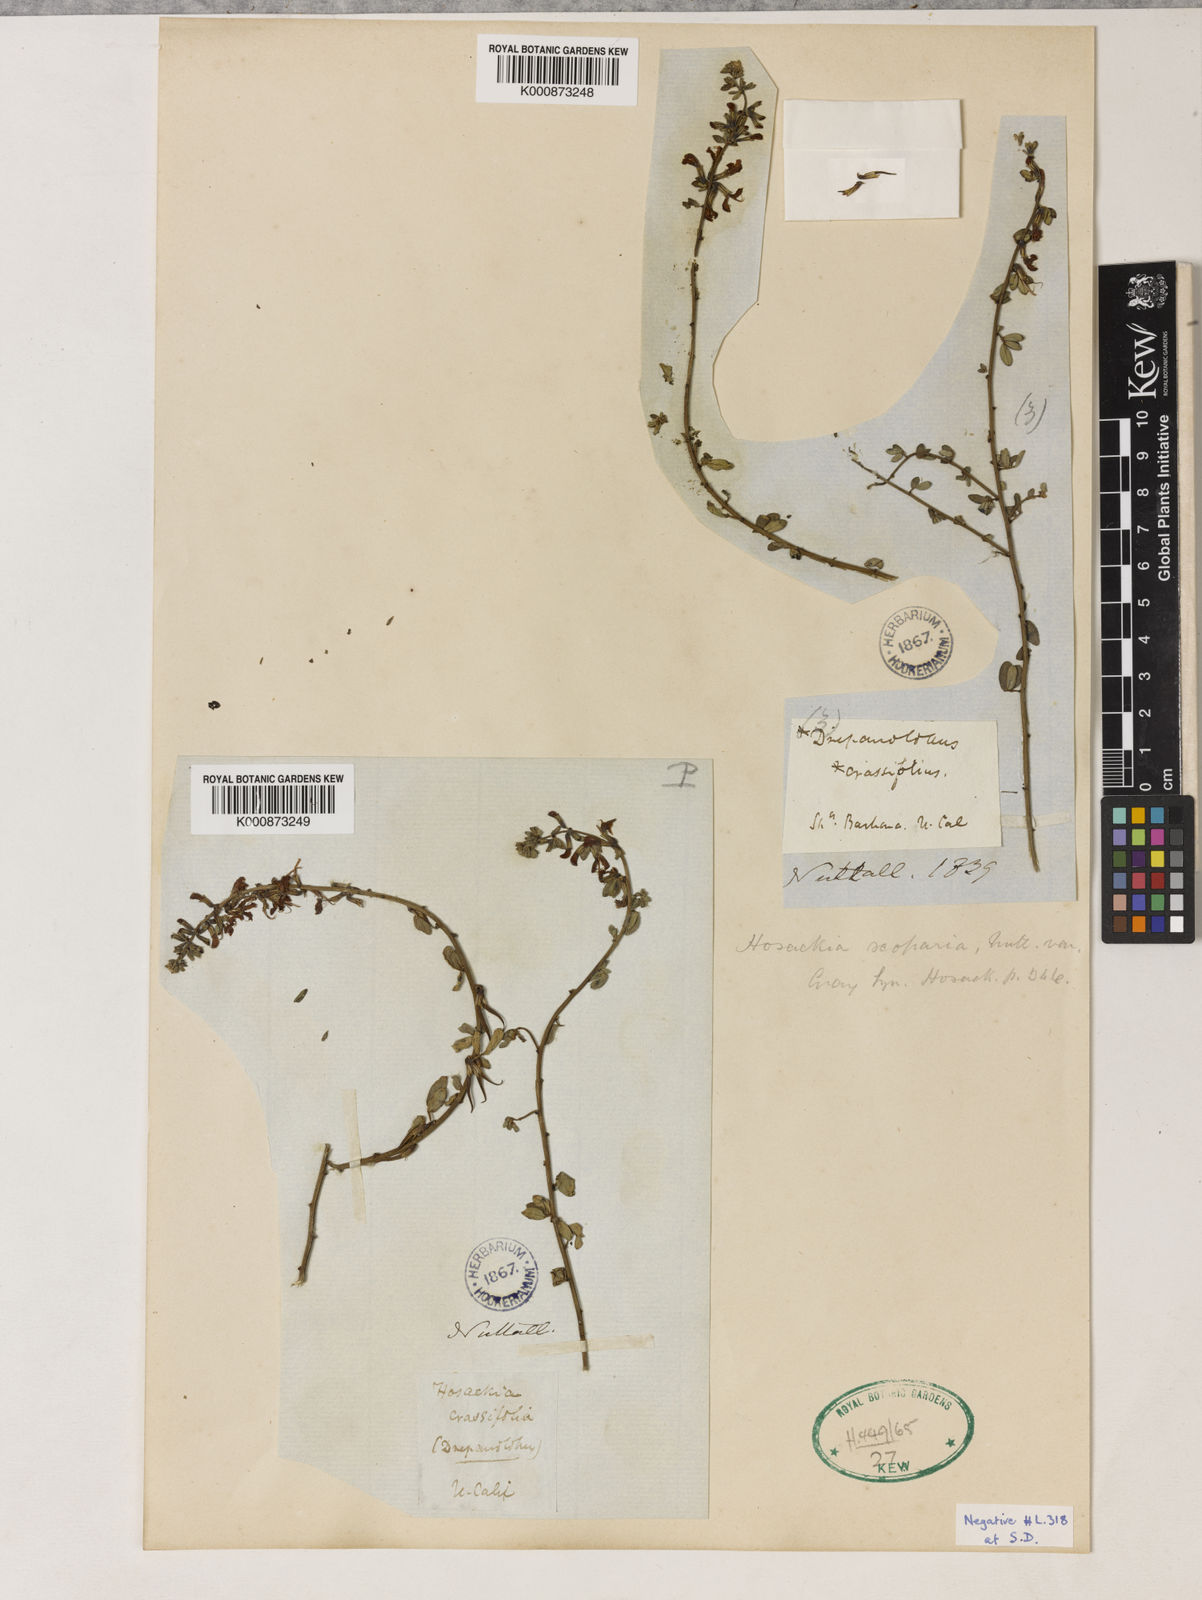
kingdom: Plantae
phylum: Tracheophyta
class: Magnoliopsida
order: Fabales
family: Fabaceae
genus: Acmispon
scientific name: Acmispon glaber
